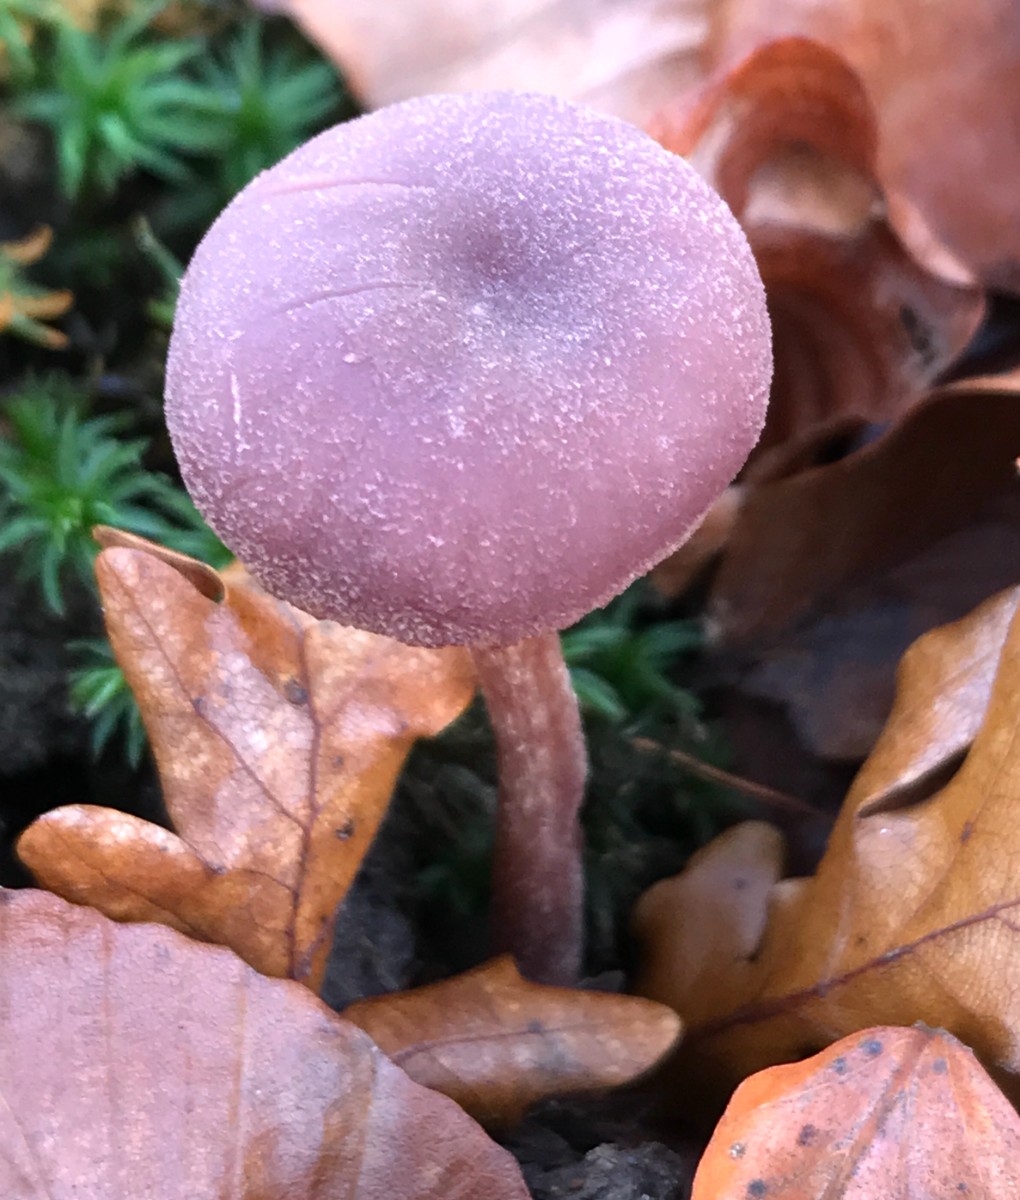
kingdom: Fungi
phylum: Basidiomycota
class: Agaricomycetes
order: Agaricales
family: Hydnangiaceae
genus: Laccaria
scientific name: Laccaria amethystina
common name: violet ametysthat
